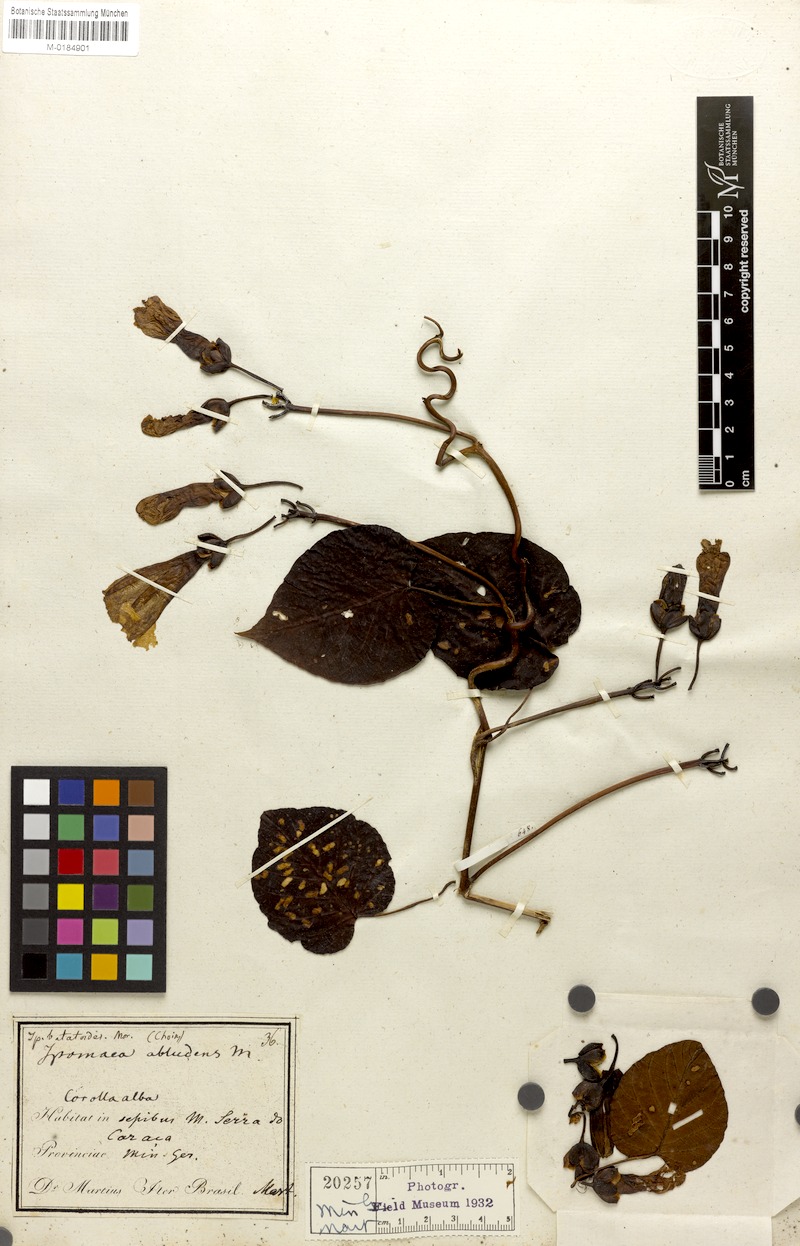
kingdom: Plantae
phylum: Tracheophyta
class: Magnoliopsida
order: Solanales
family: Convolvulaceae
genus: Ipomoea
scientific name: Ipomoea batatoides
